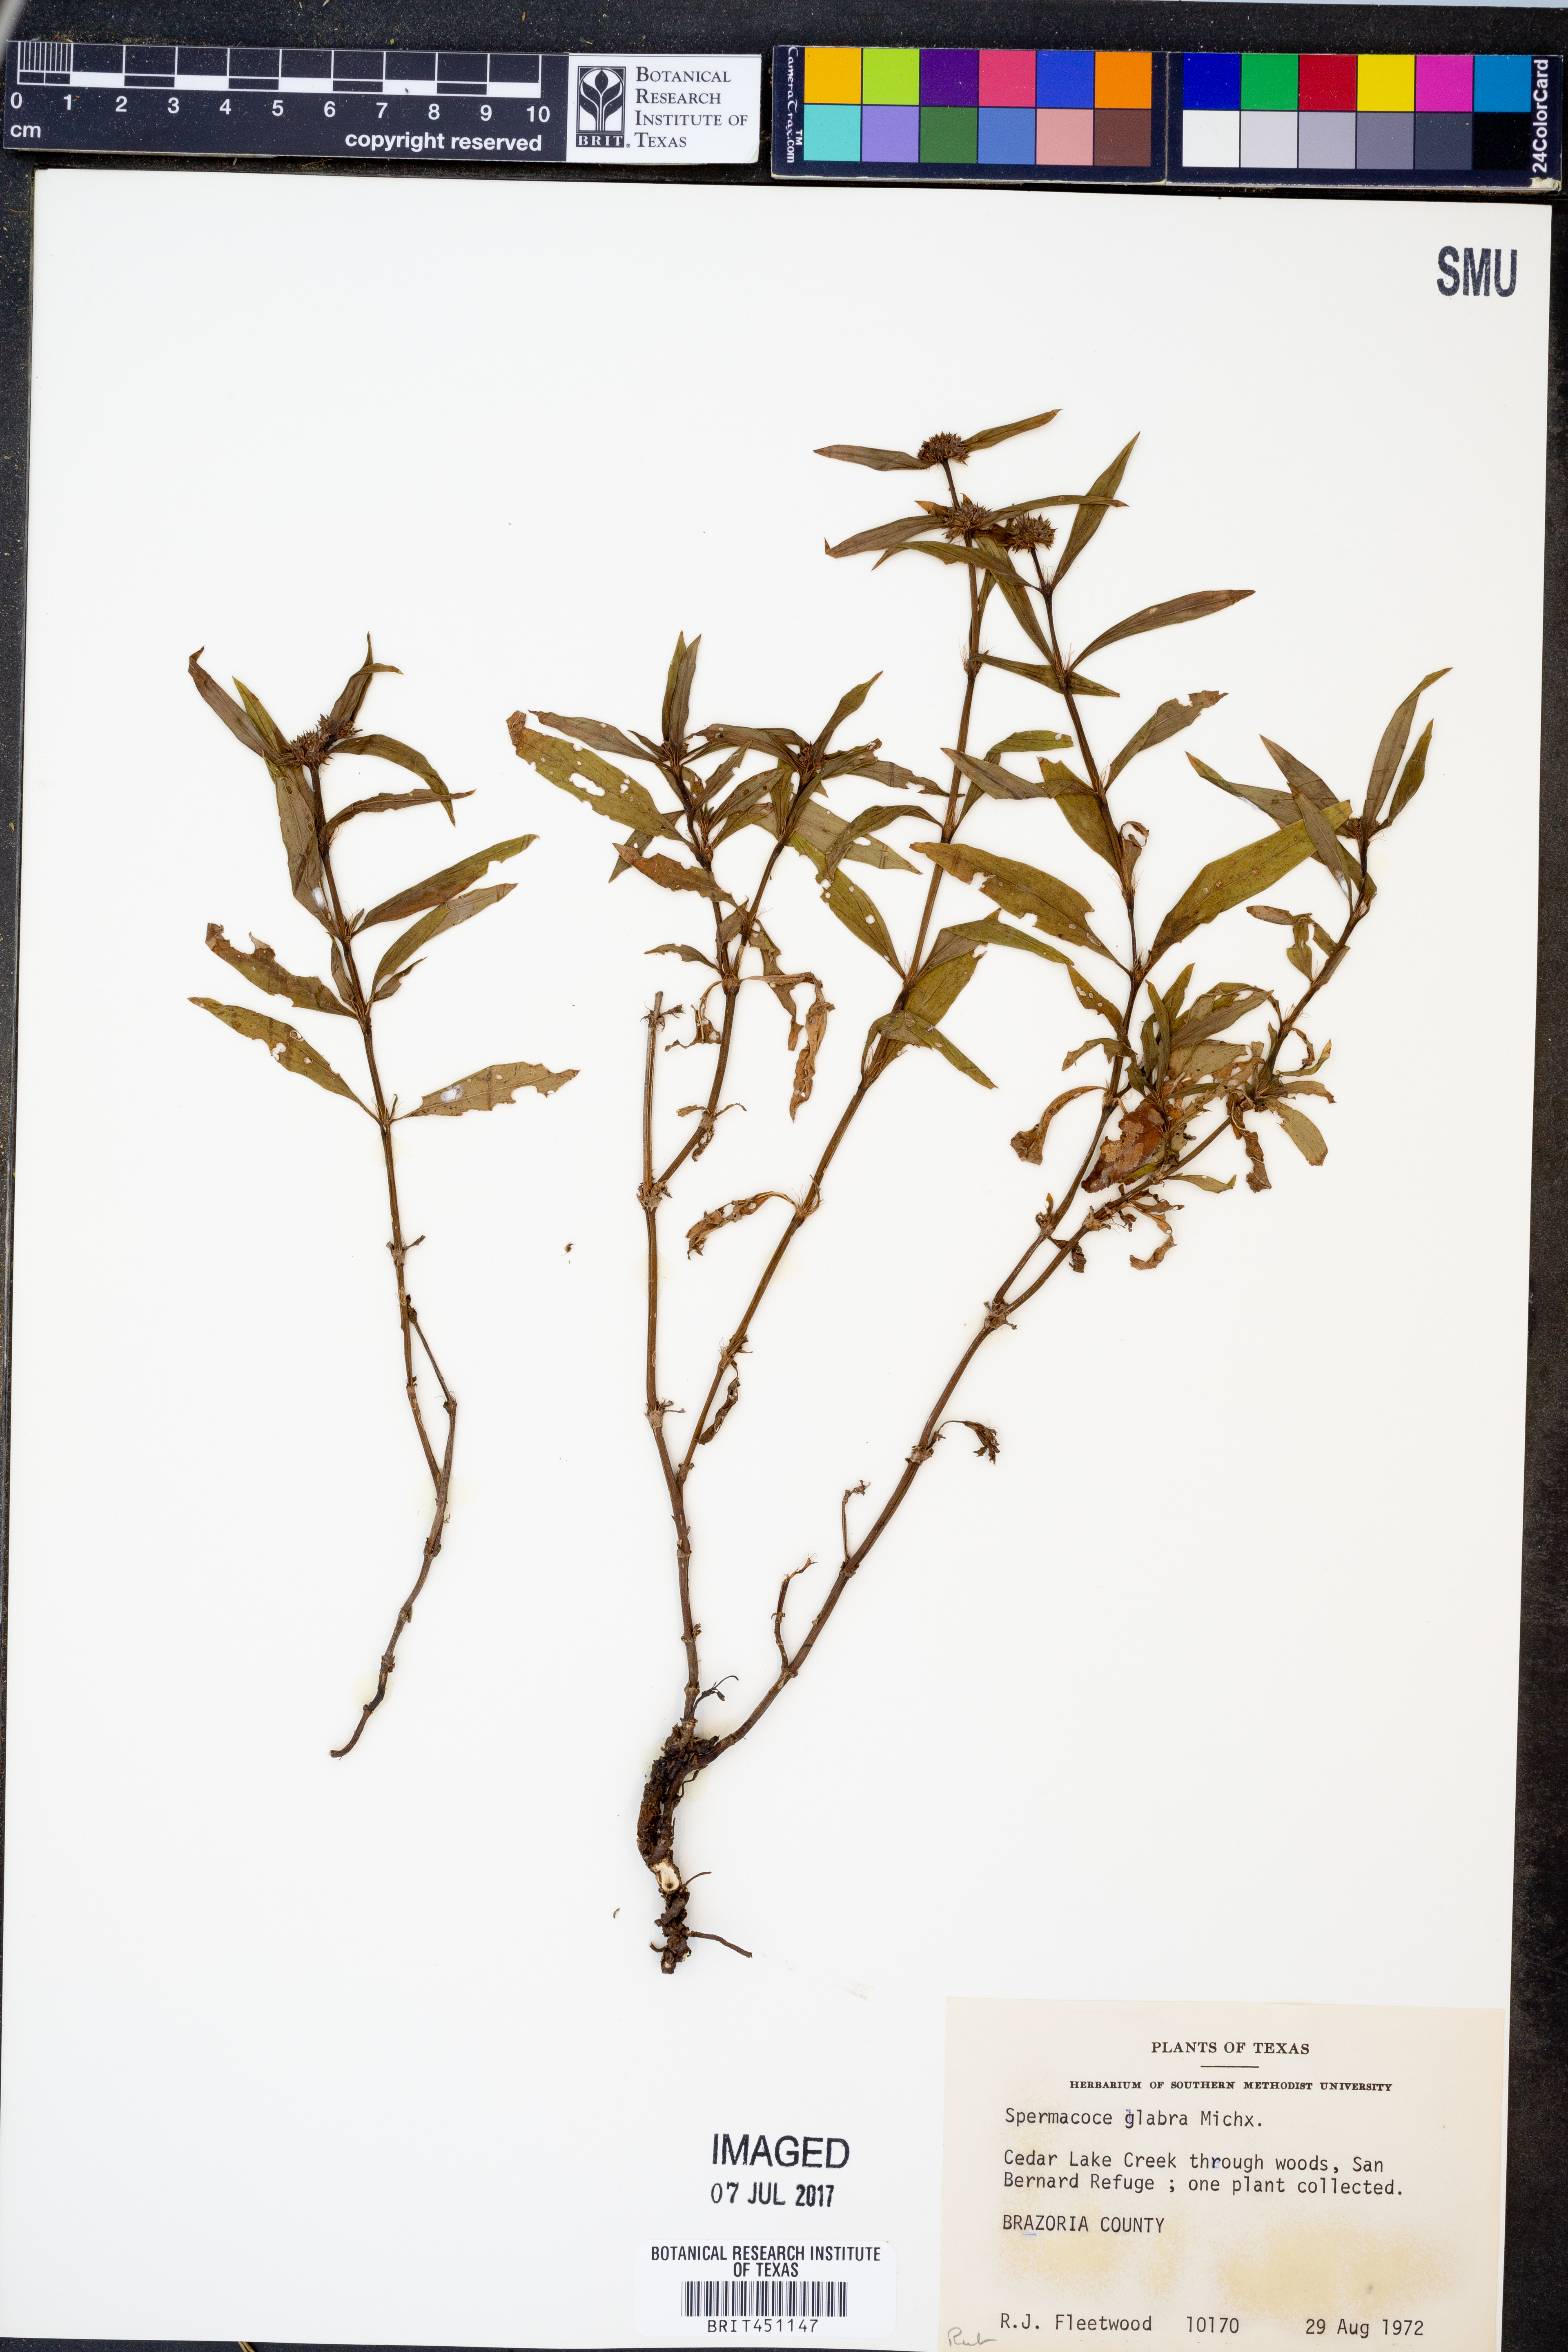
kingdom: Plantae
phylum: Tracheophyta
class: Magnoliopsida
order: Gentianales
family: Rubiaceae
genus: Spermacoce
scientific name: Spermacoce glabra
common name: Smooth buttonweed
